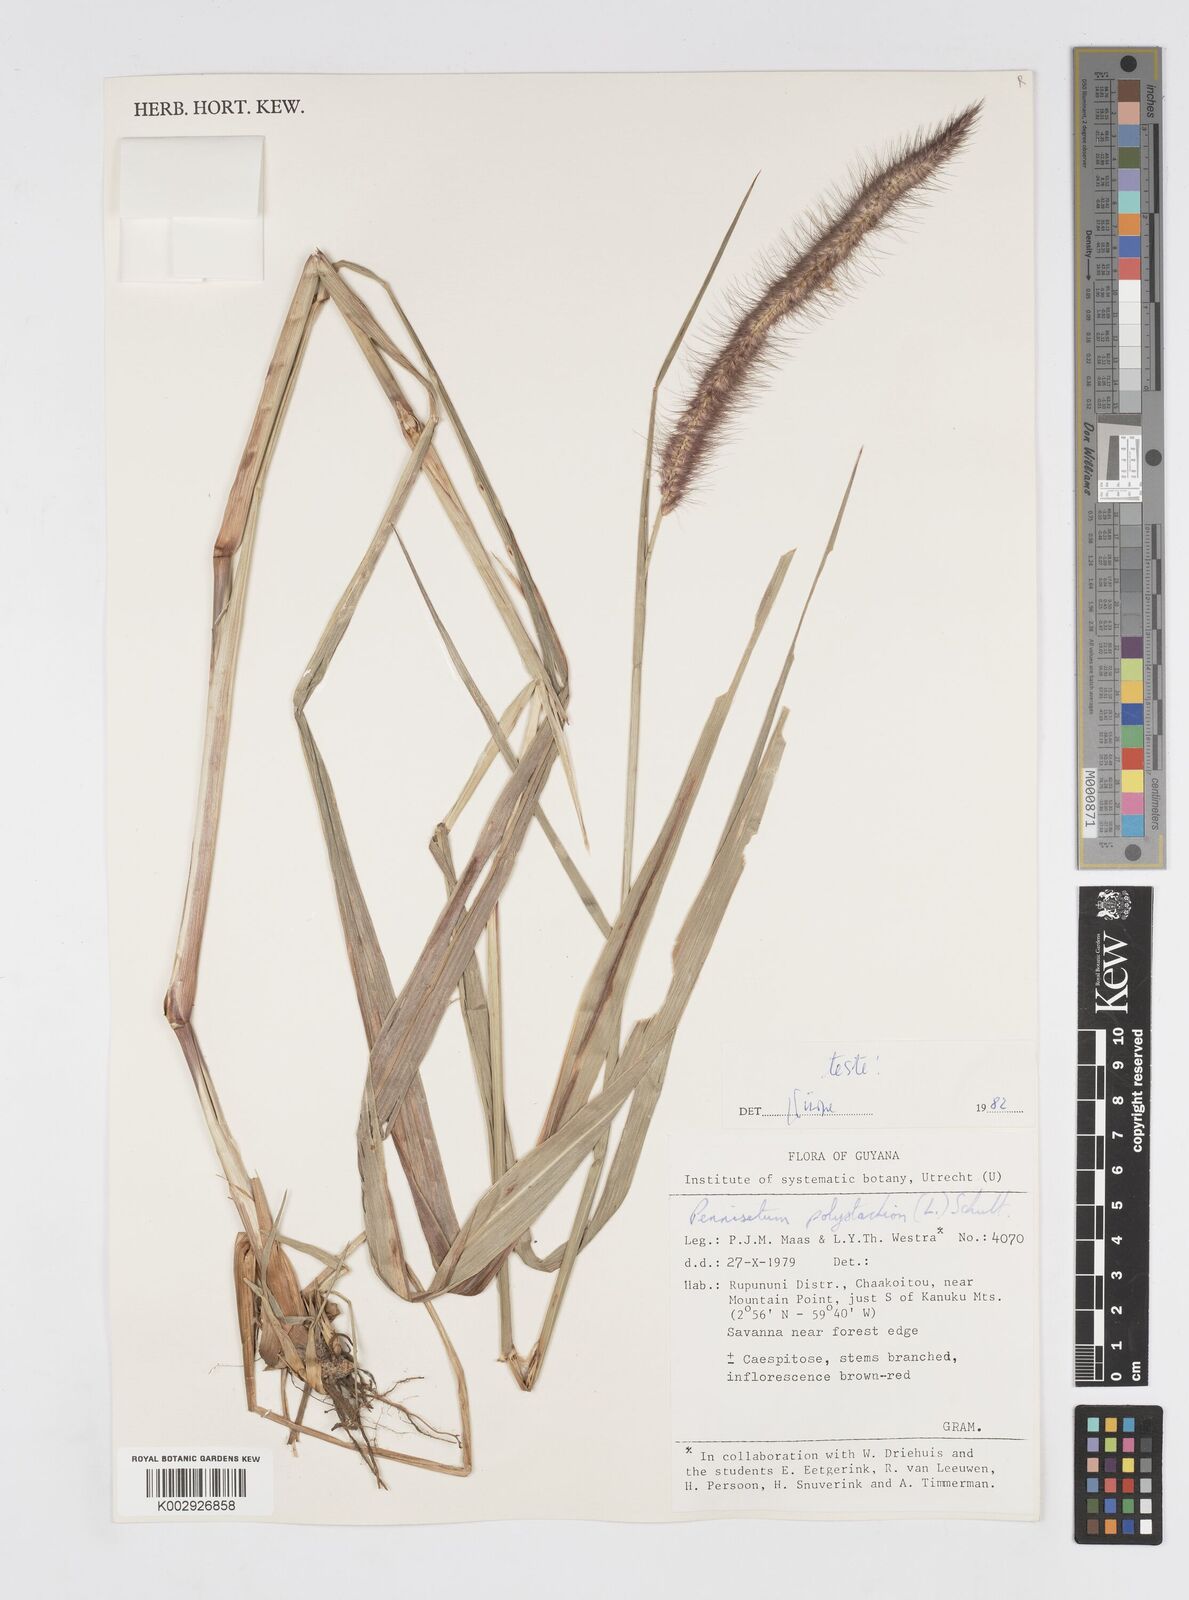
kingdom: Plantae
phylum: Tracheophyta
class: Liliopsida
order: Poales
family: Poaceae
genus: Cenchrus
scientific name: Cenchrus setosus
